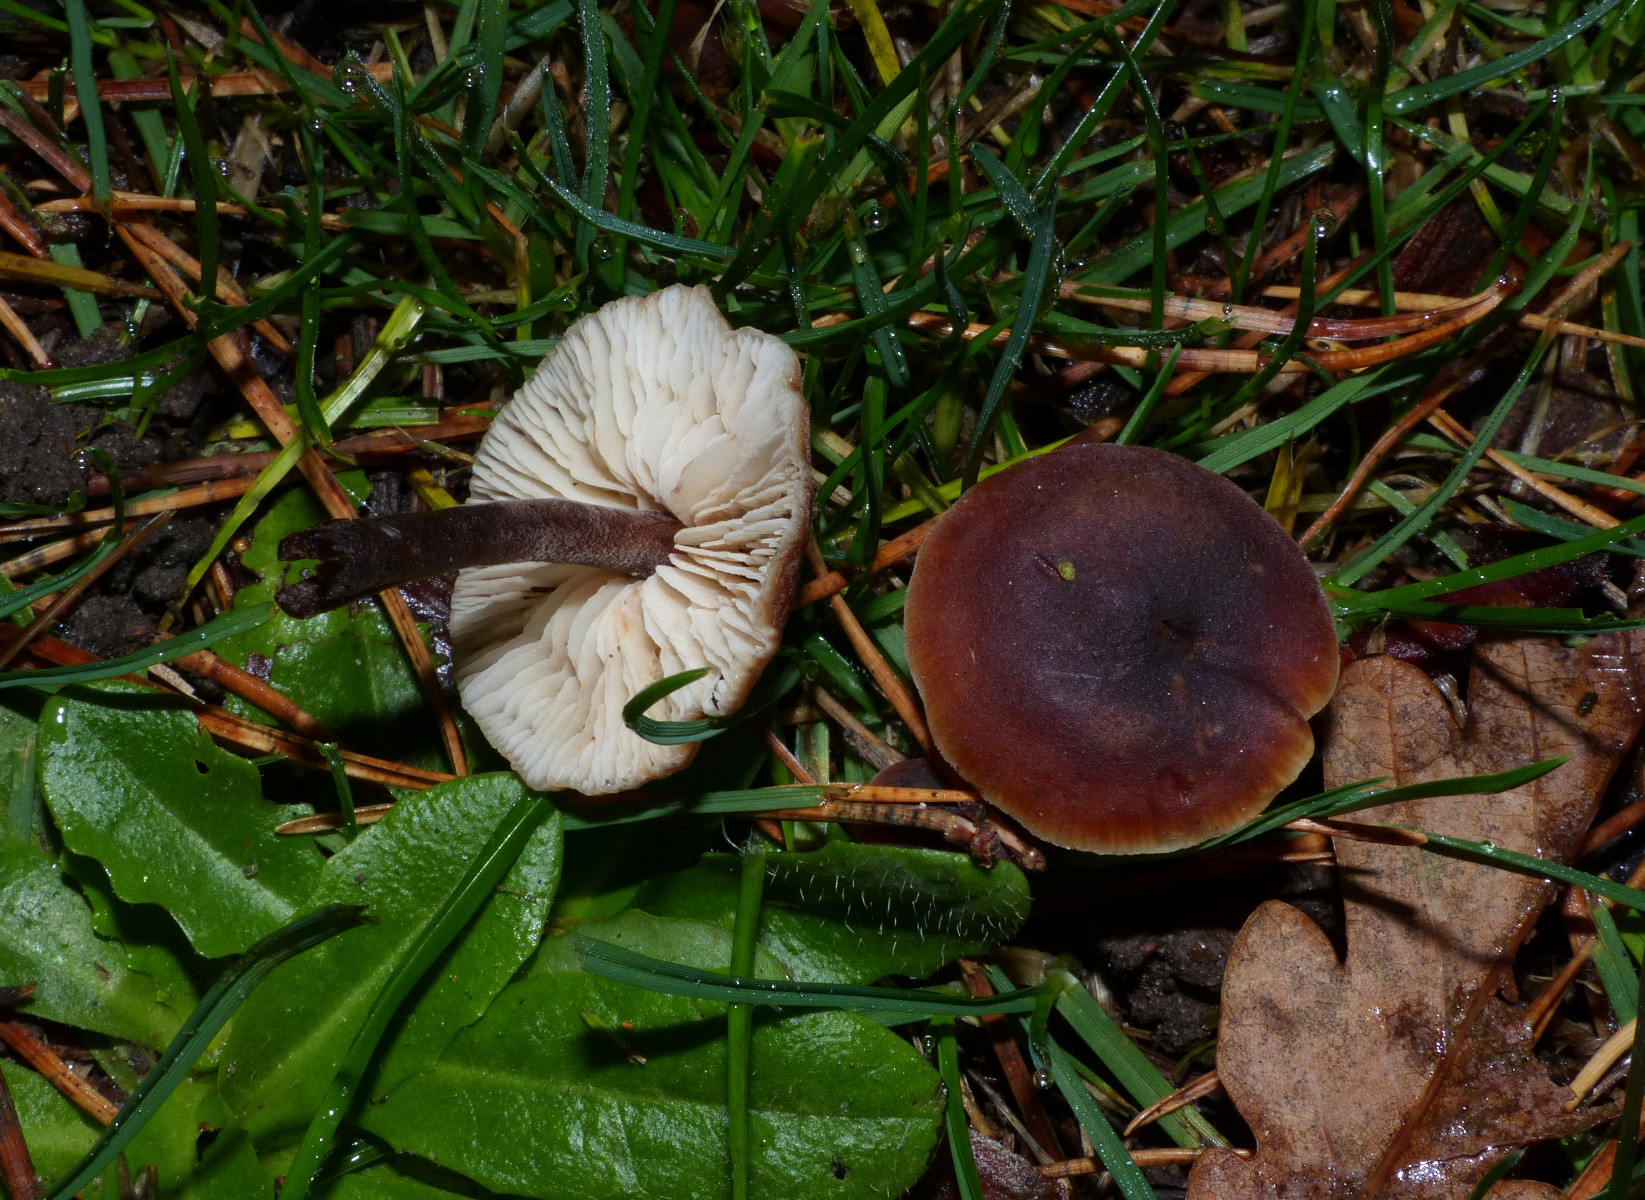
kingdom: Fungi
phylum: Basidiomycota
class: Agaricomycetes
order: Agaricales
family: Macrocystidiaceae
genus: Macrocystidia
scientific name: Macrocystidia cucumis
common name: agurkehat
